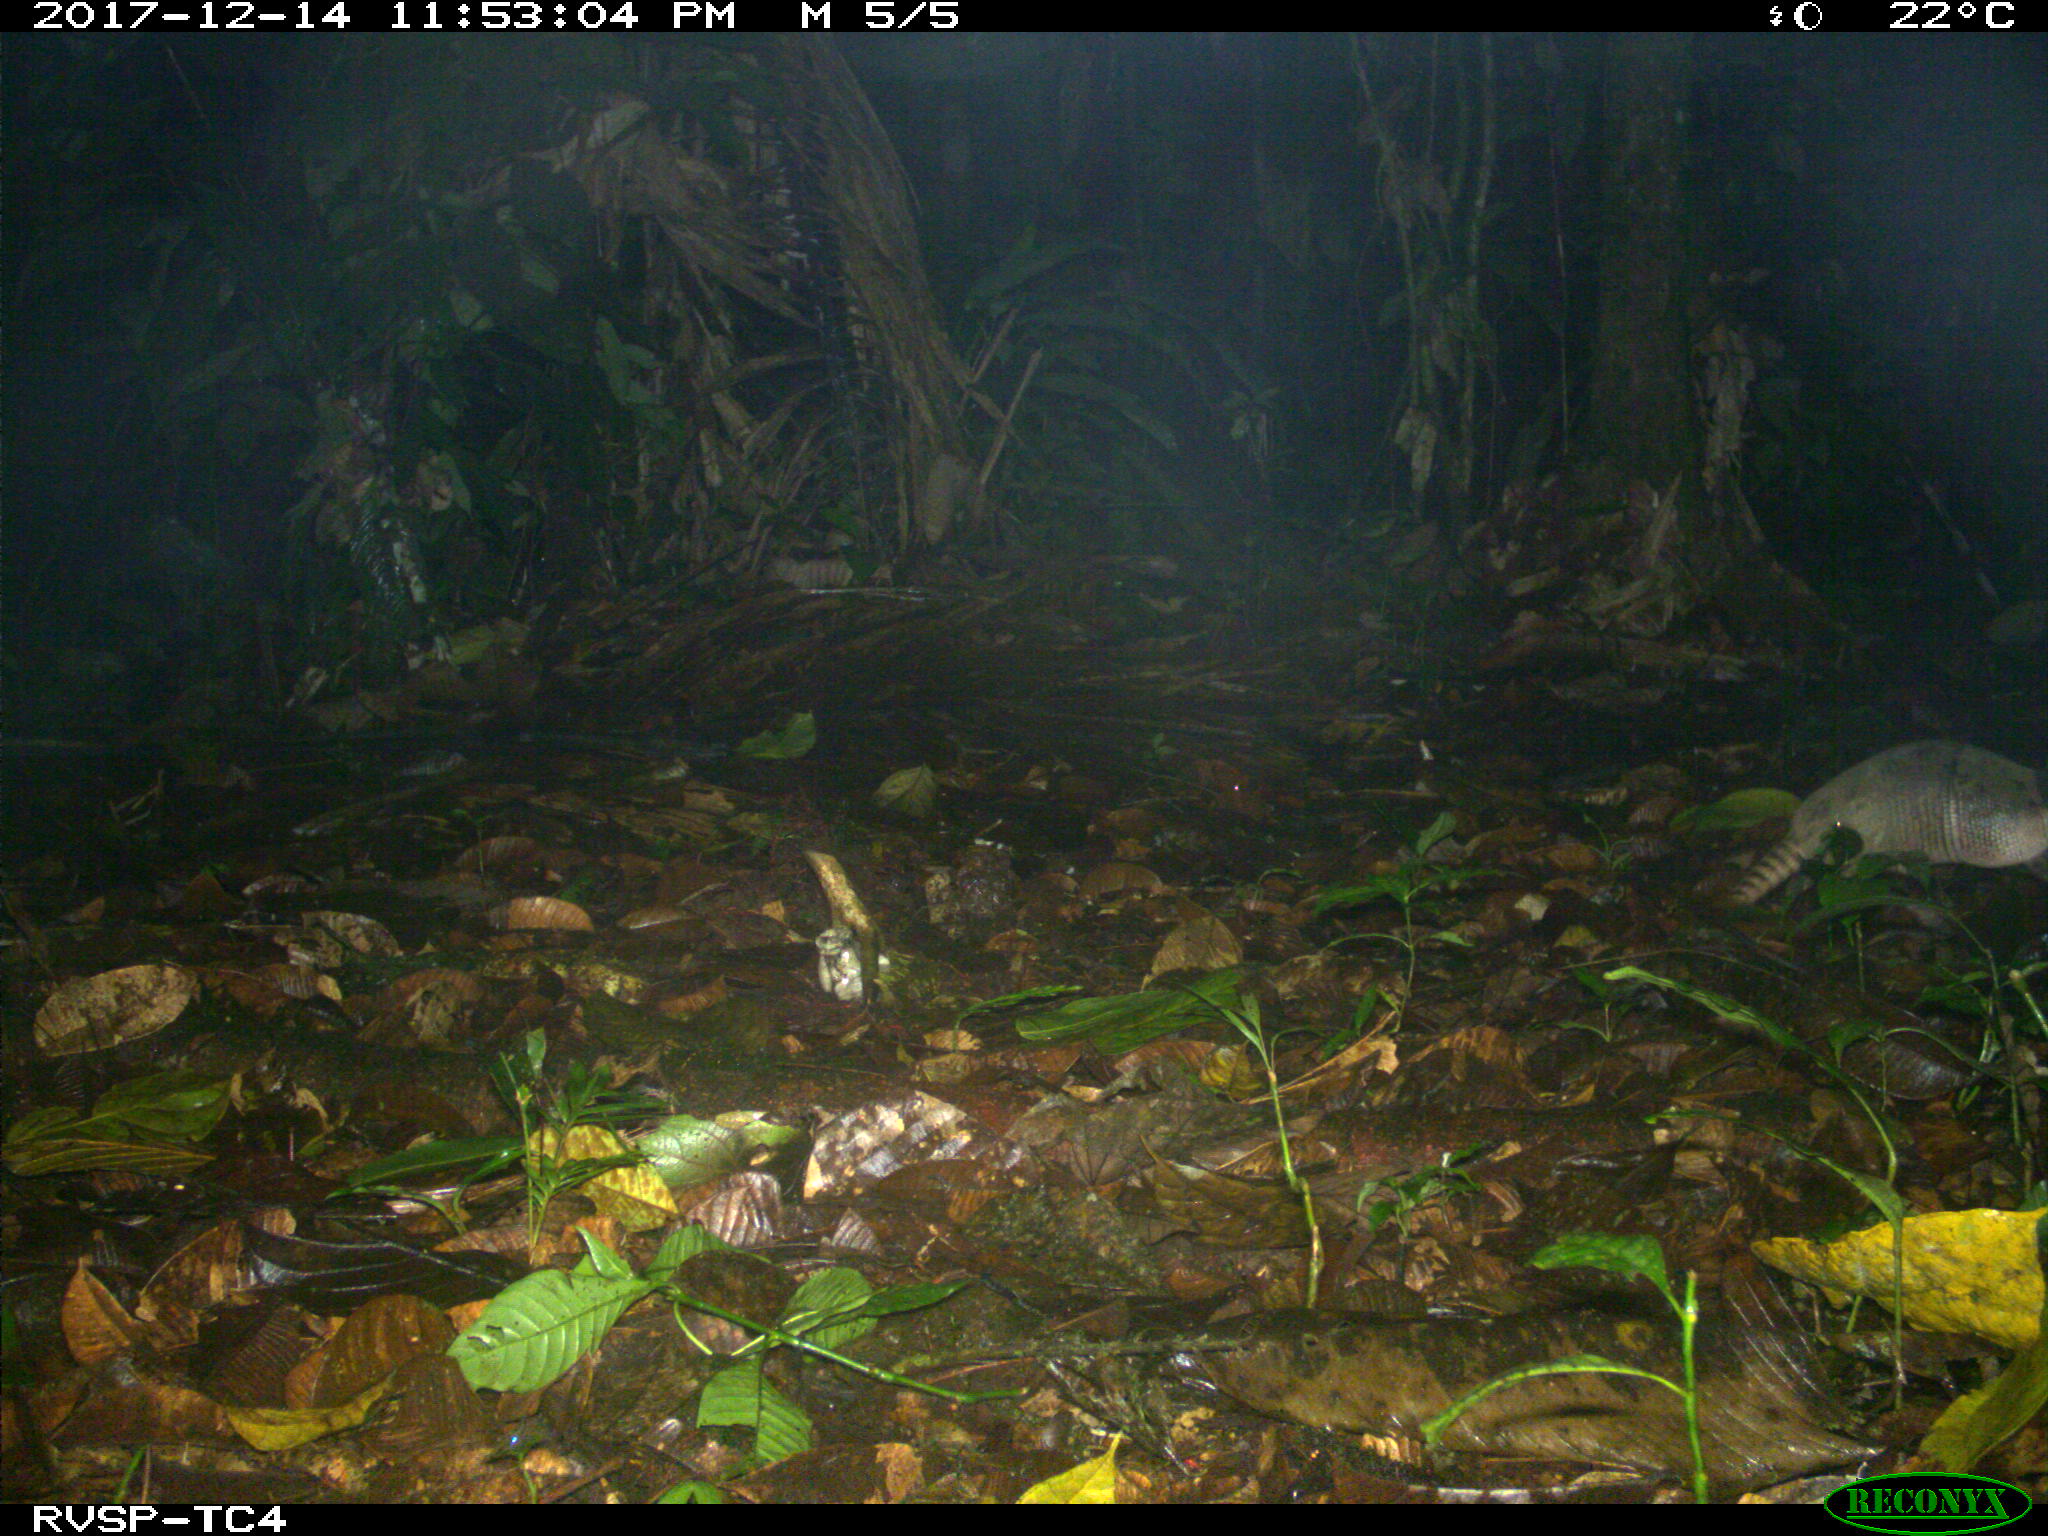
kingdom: Animalia
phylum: Chordata
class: Mammalia
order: Cingulata
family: Dasypodidae
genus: Dasypus
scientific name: Dasypus novemcinctus
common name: Nine-banded armadillo
